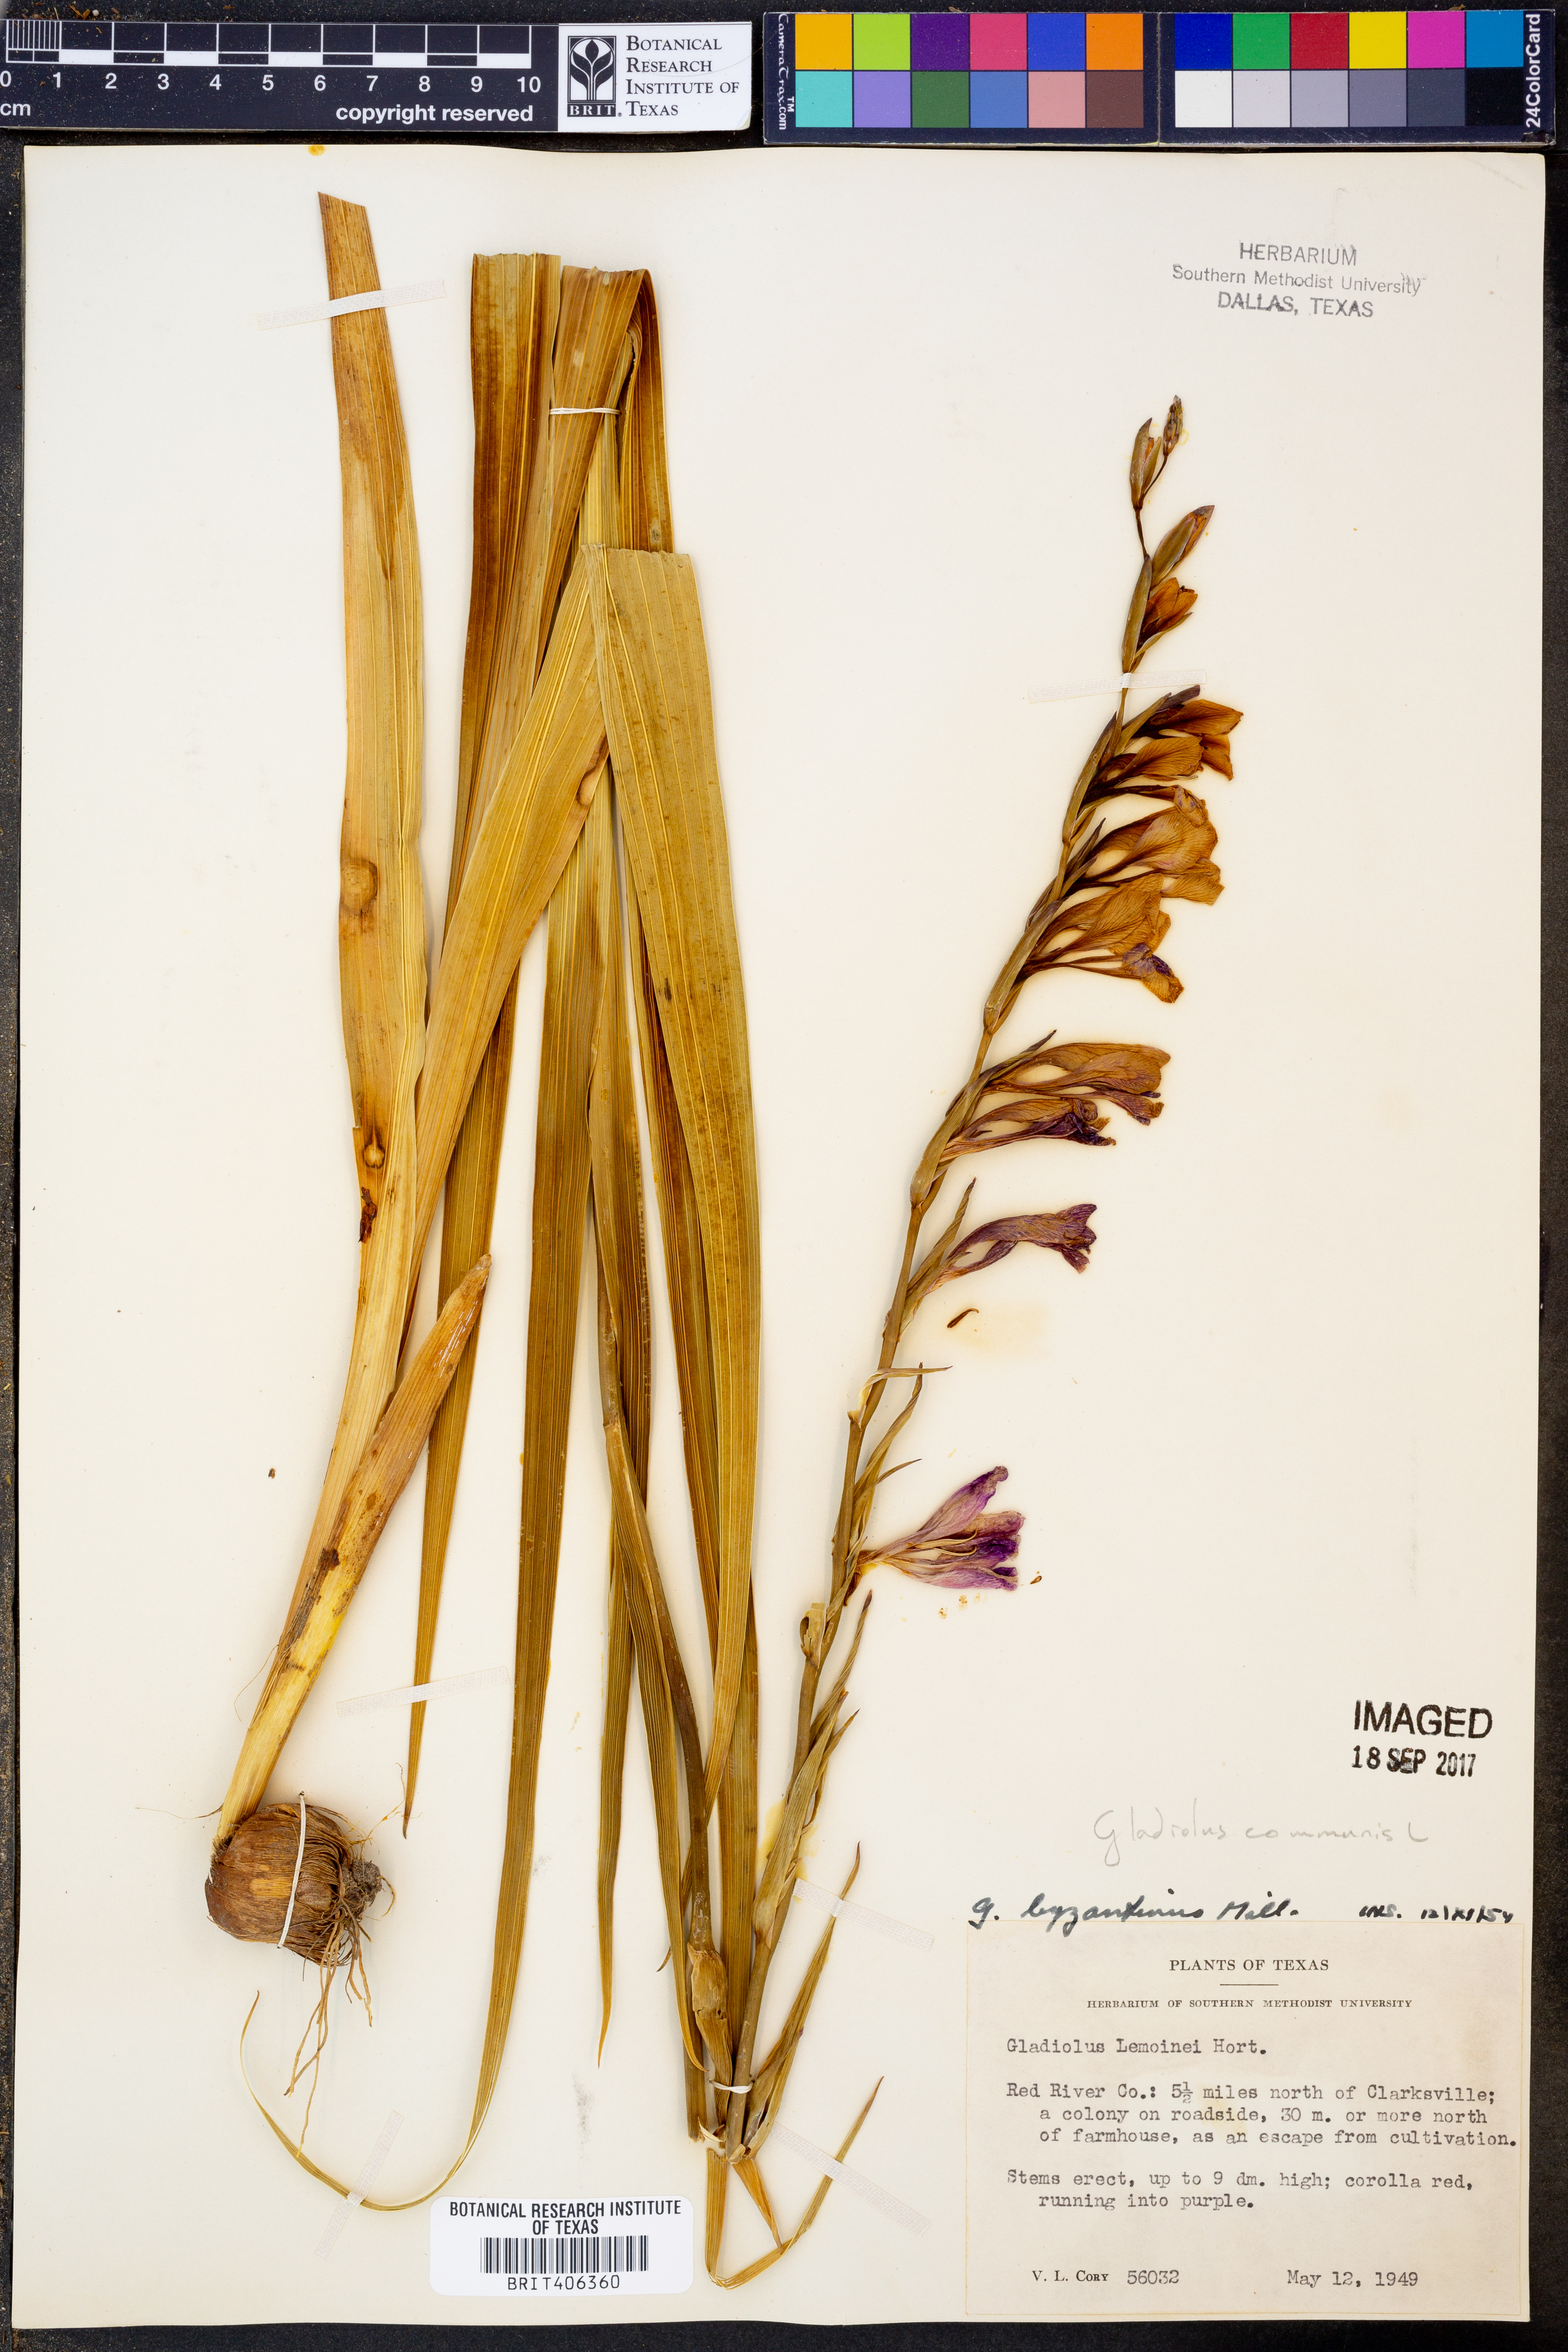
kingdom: Plantae
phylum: Tracheophyta
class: Liliopsida
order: Asparagales
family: Iridaceae
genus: Gladiolus
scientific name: Gladiolus byzantinus
